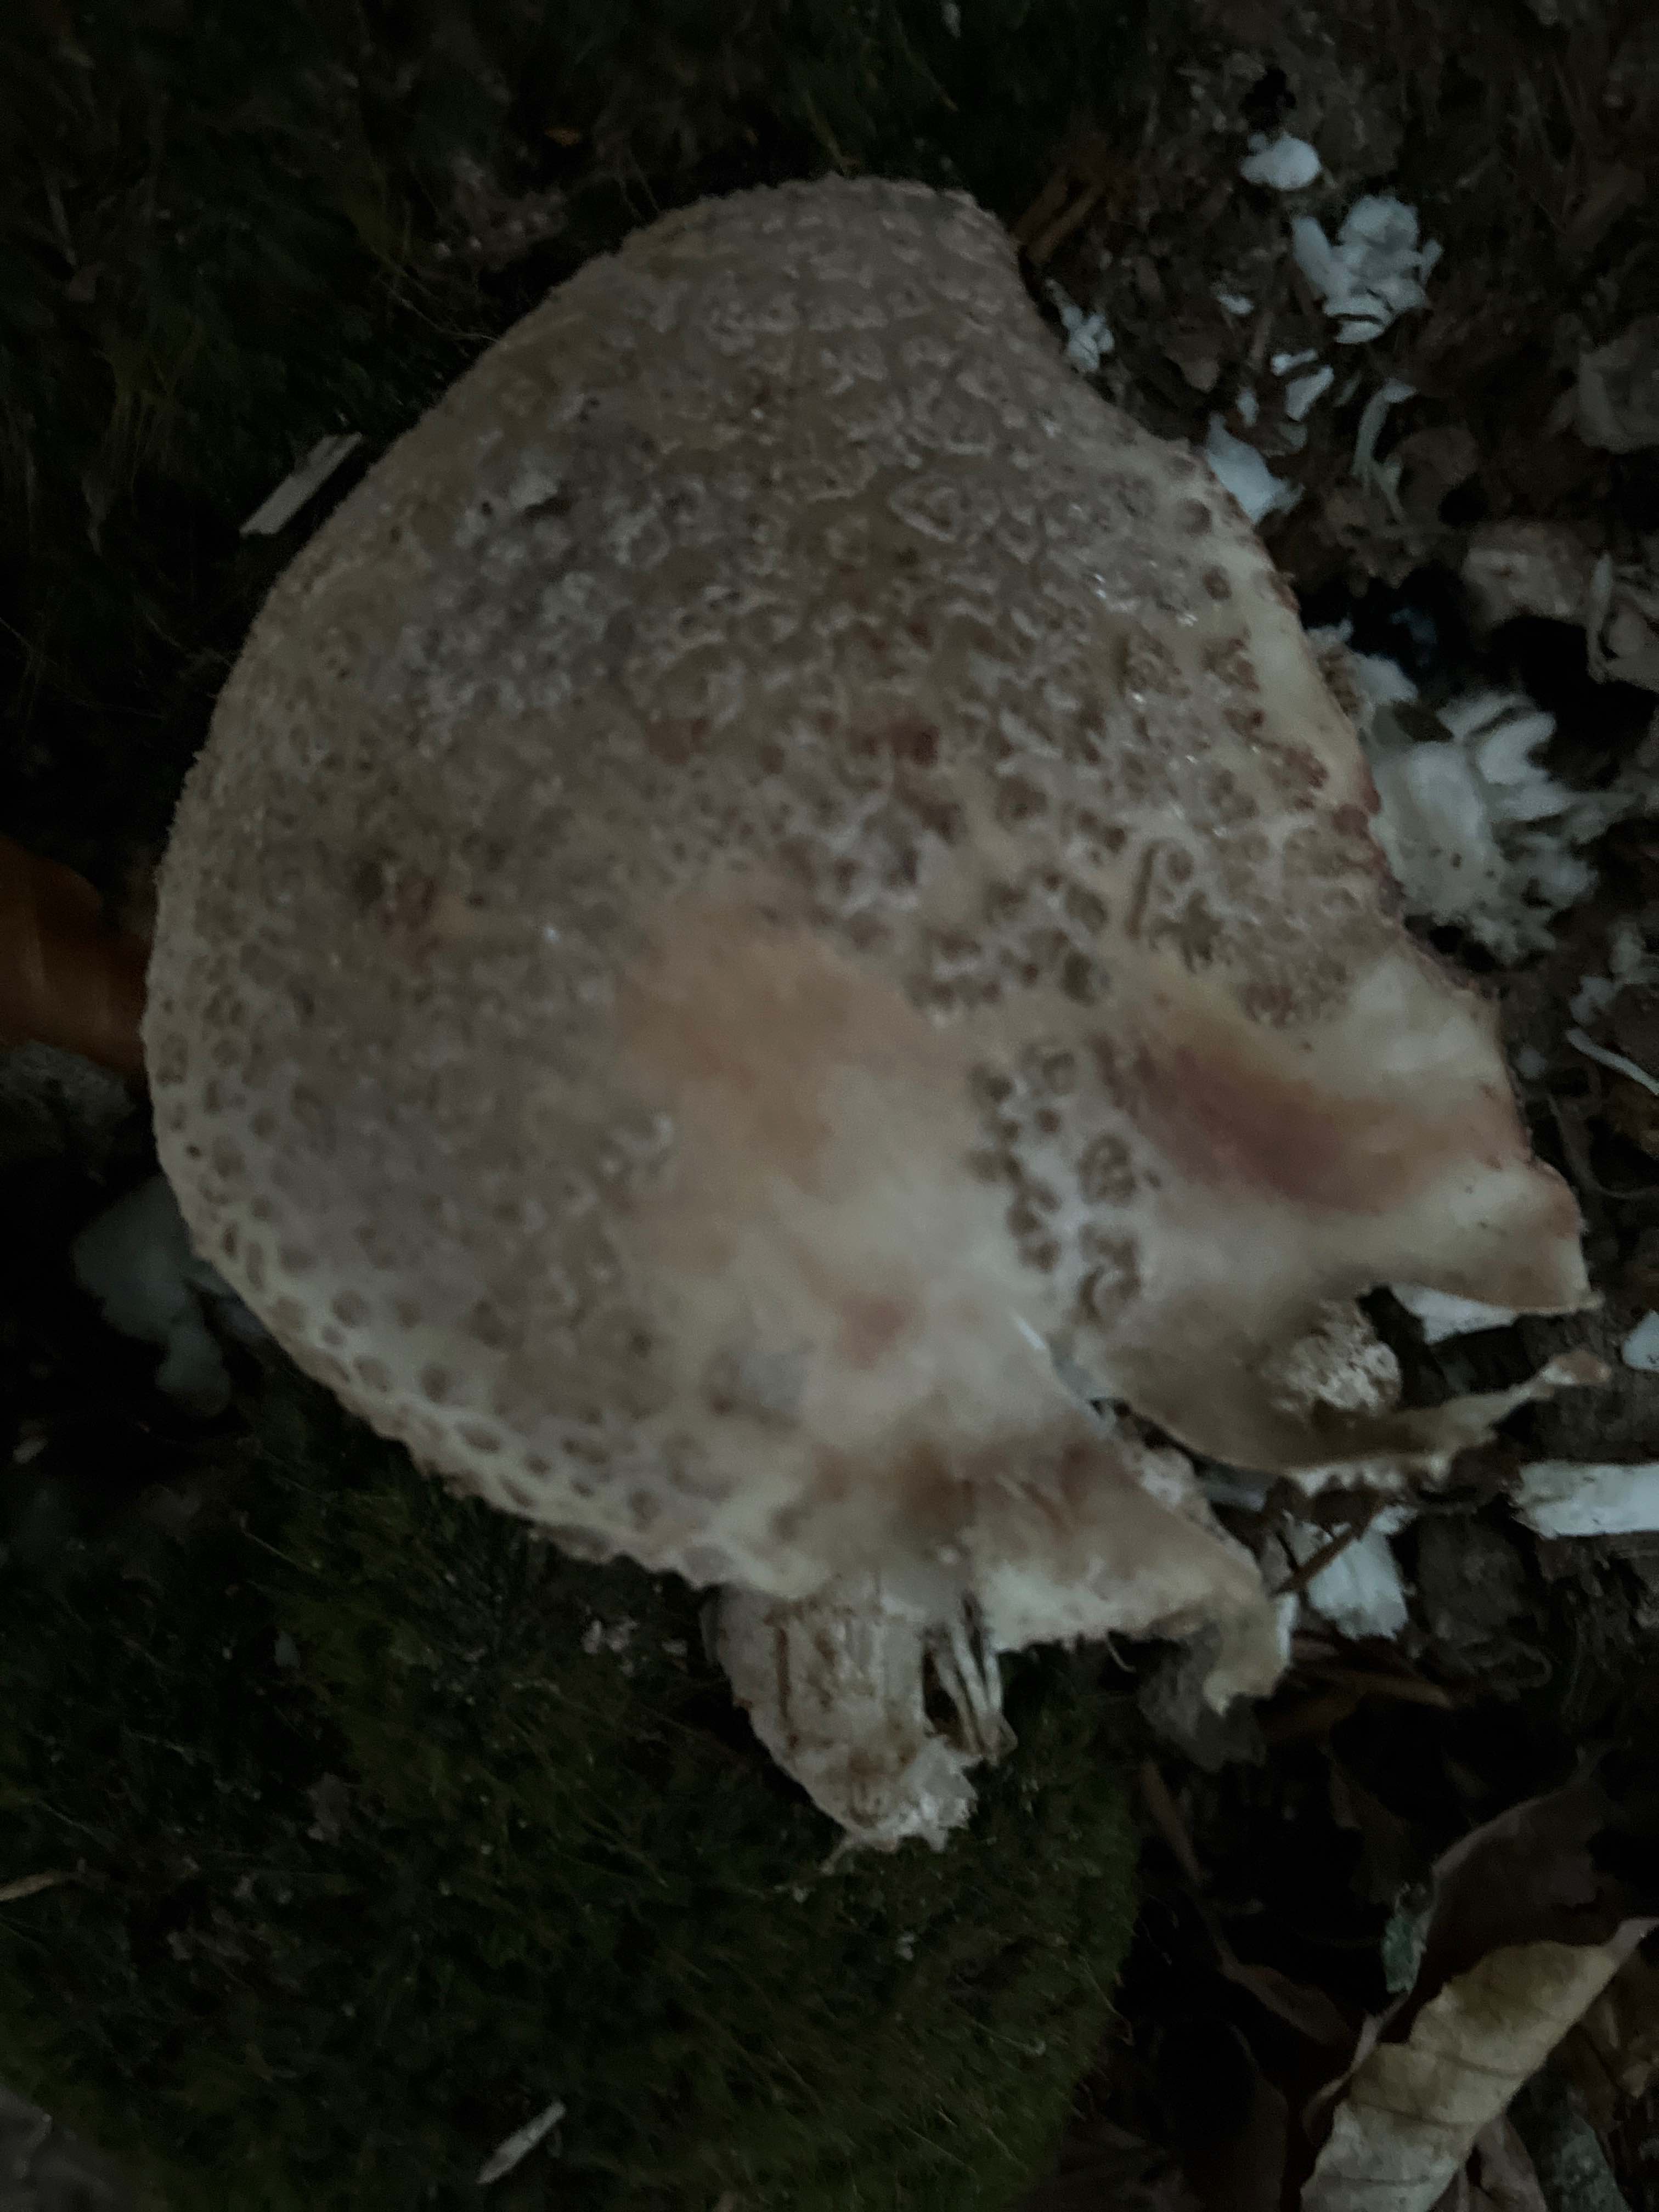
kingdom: Fungi
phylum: Basidiomycota
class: Agaricomycetes
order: Agaricales
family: Amanitaceae
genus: Amanita
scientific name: Amanita rubescens
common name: rødmende fluesvamp
